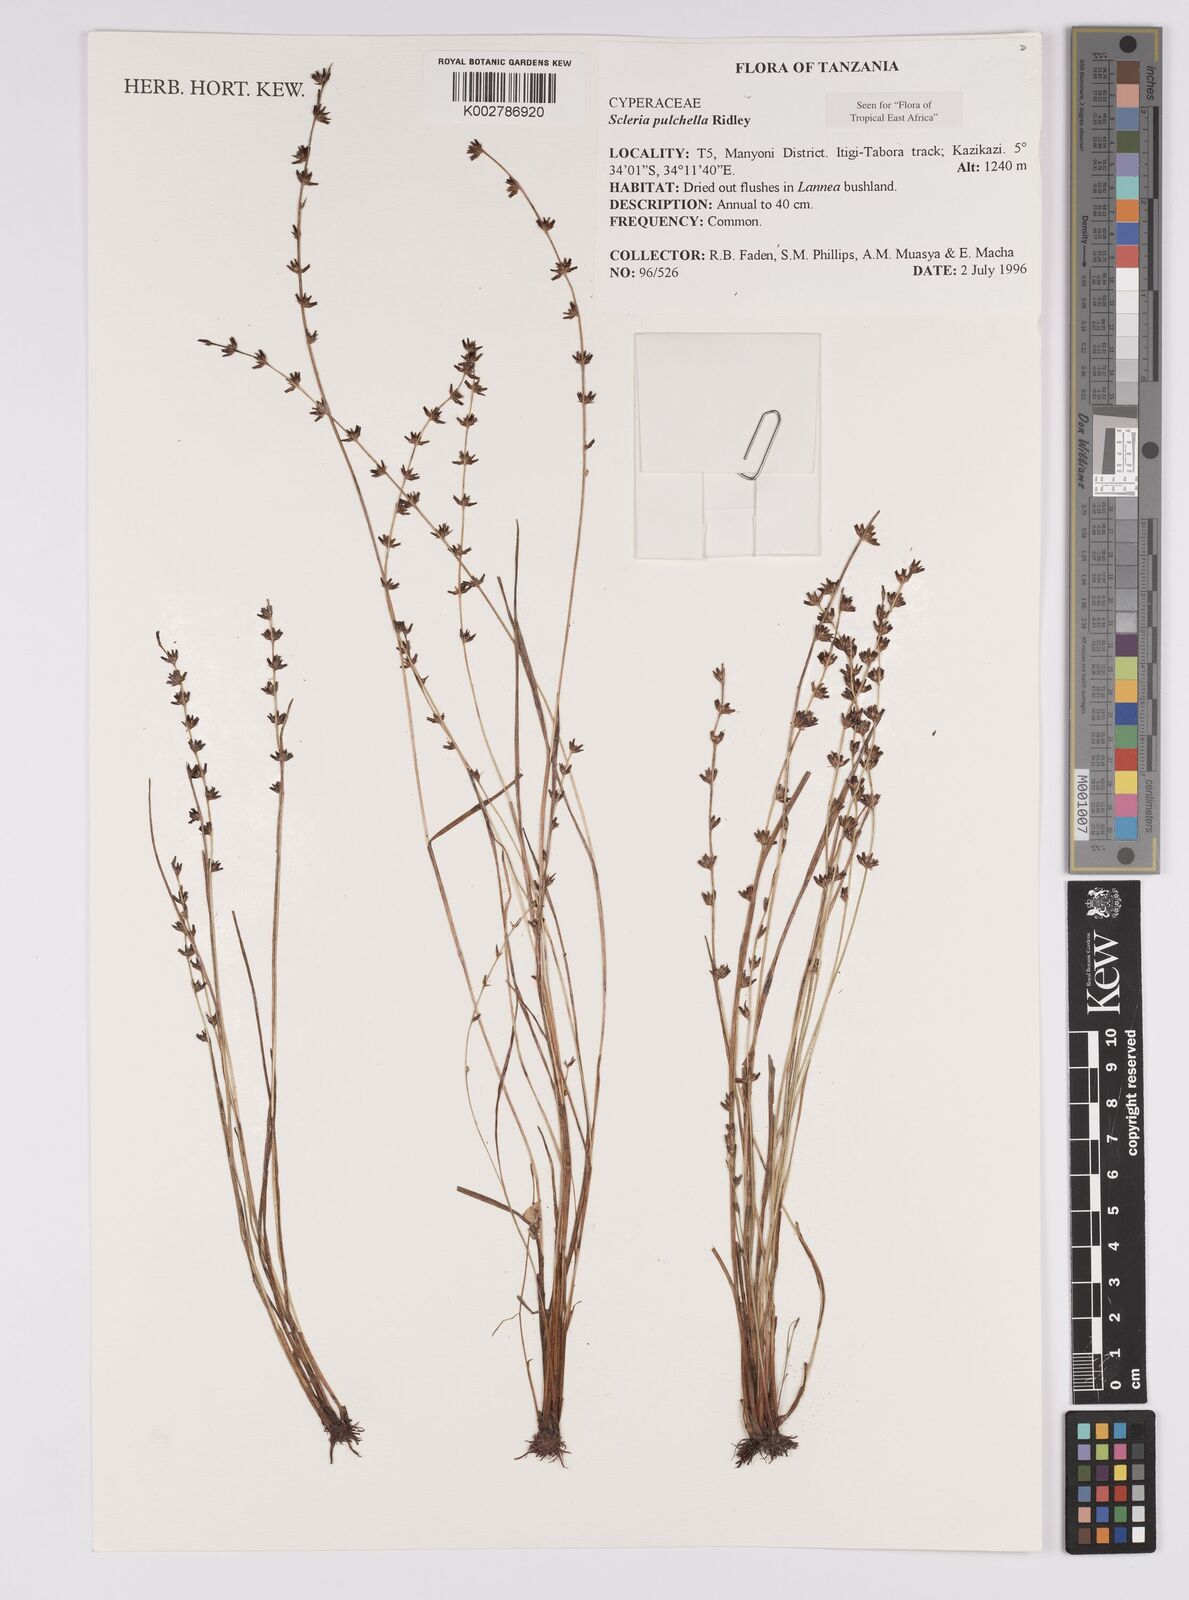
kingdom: Plantae
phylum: Tracheophyta
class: Liliopsida
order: Poales
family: Cyperaceae
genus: Scleria
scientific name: Scleria pulchella
